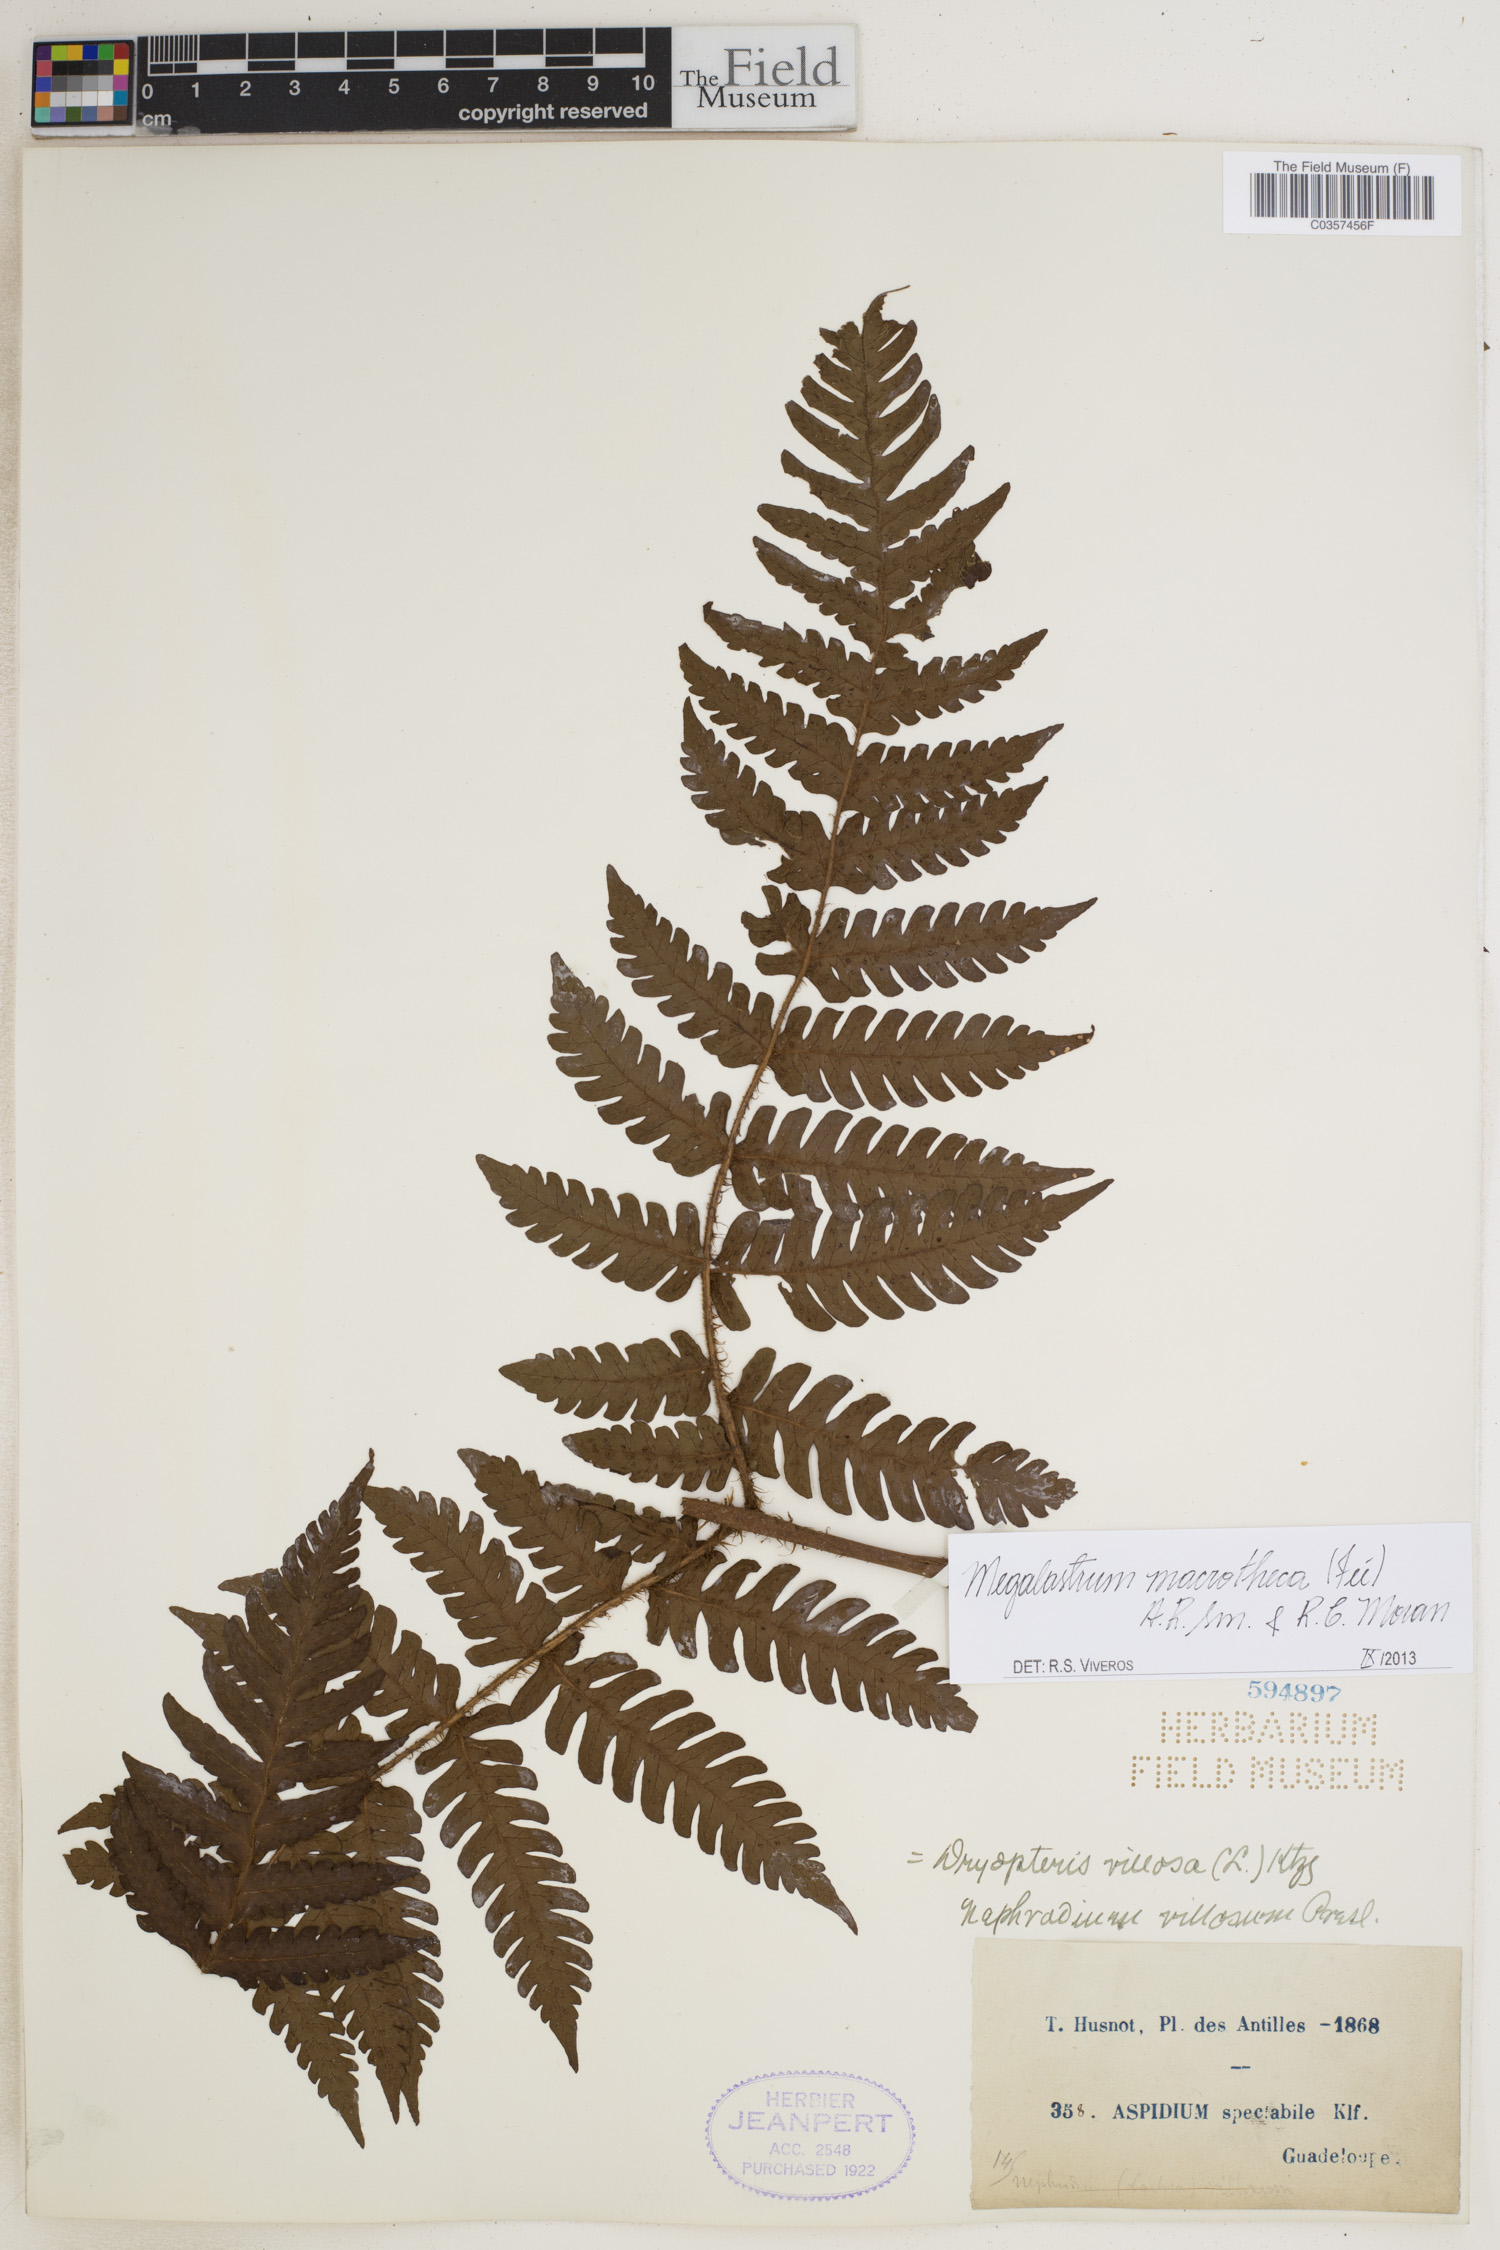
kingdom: Plantae
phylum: Tracheophyta
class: Polypodiopsida
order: Polypodiales
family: Dryopteridaceae
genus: Megalastrum
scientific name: Megalastrum macrothecum
